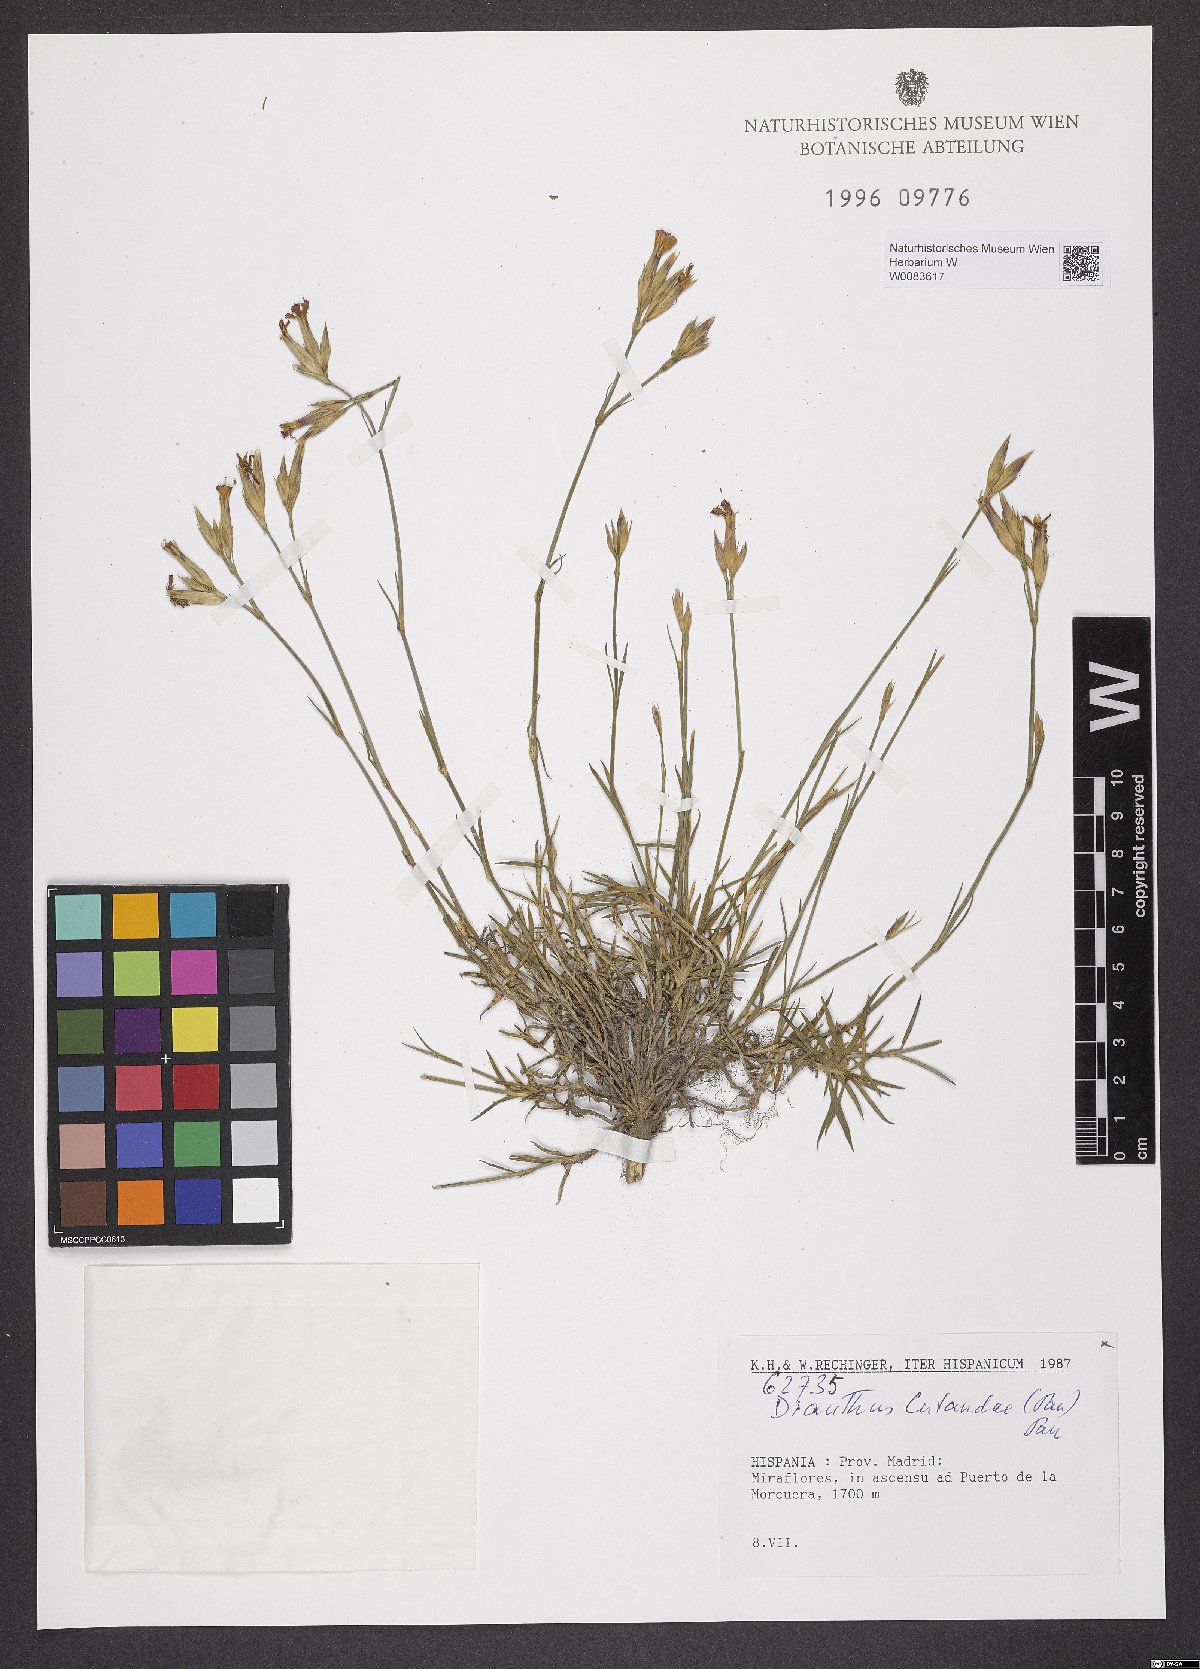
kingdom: Plantae
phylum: Tracheophyta
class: Magnoliopsida
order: Caryophyllales
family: Caryophyllaceae
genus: Dianthus
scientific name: Dianthus legionensis
